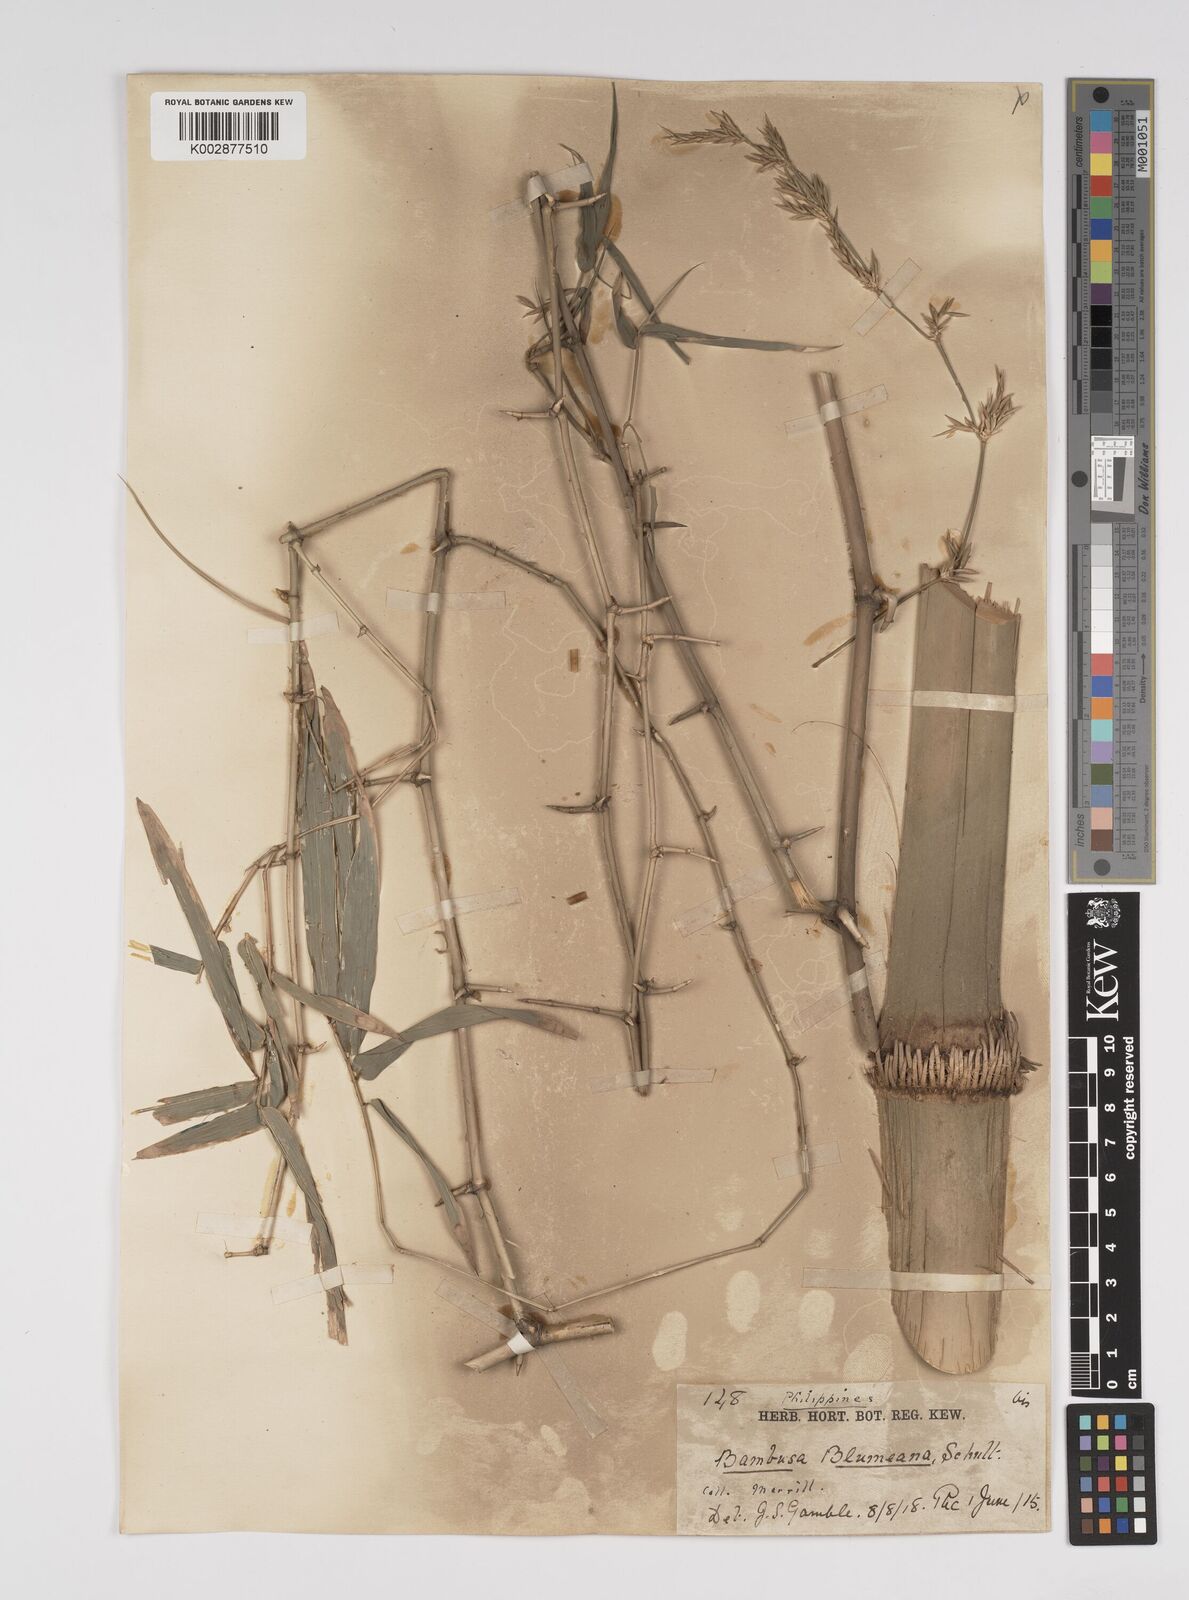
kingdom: Plantae
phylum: Tracheophyta
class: Liliopsida
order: Poales
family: Poaceae
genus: Bambusa
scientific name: Bambusa spinosa
